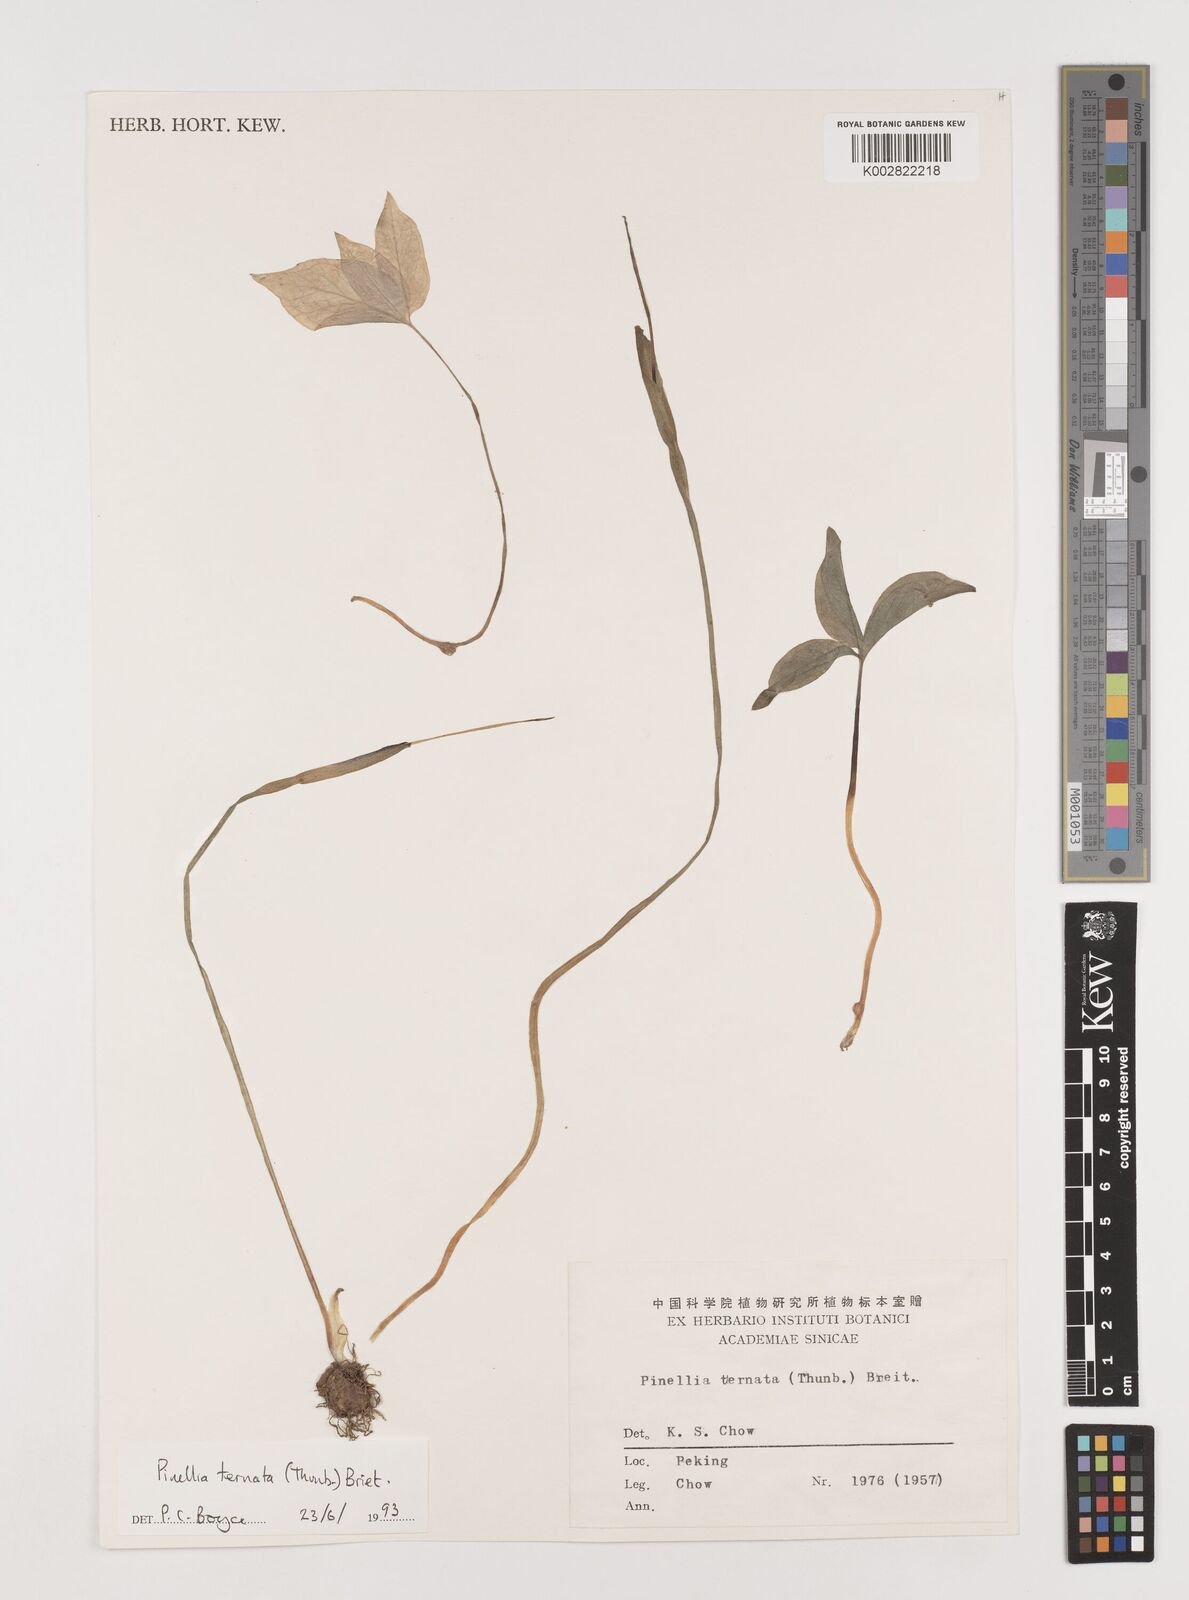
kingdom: Plantae
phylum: Tracheophyta
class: Liliopsida
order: Alismatales
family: Araceae
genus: Pinellia
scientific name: Pinellia ternata
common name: Pinellia
